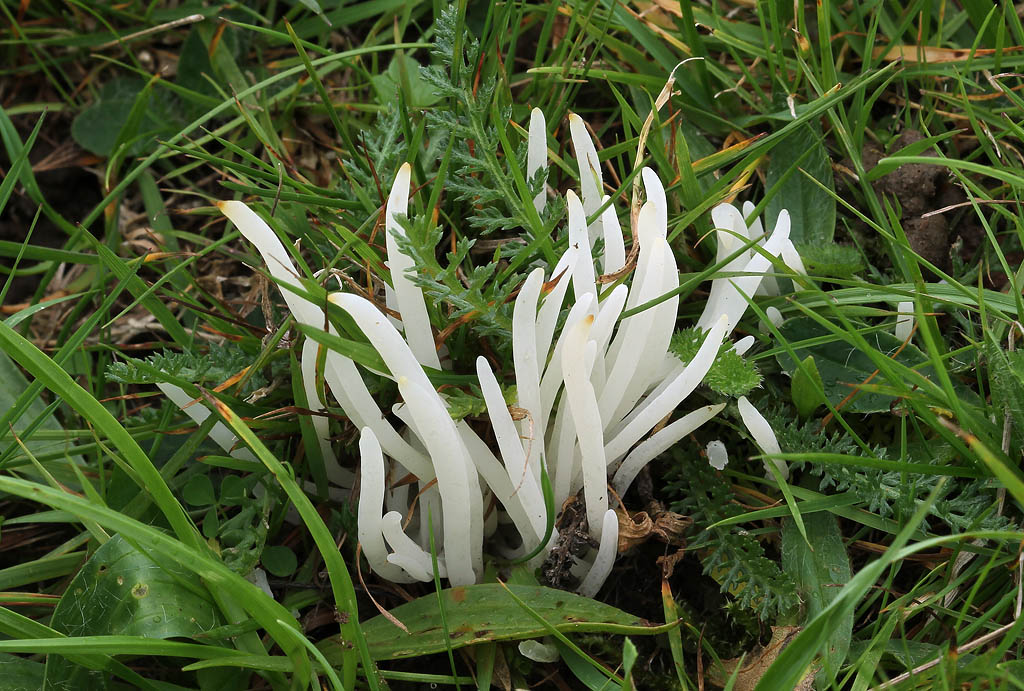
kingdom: Fungi
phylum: Basidiomycota
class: Agaricomycetes
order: Agaricales
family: Clavariaceae
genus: Clavaria
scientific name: Clavaria falcata
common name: hvid køllesvamp
